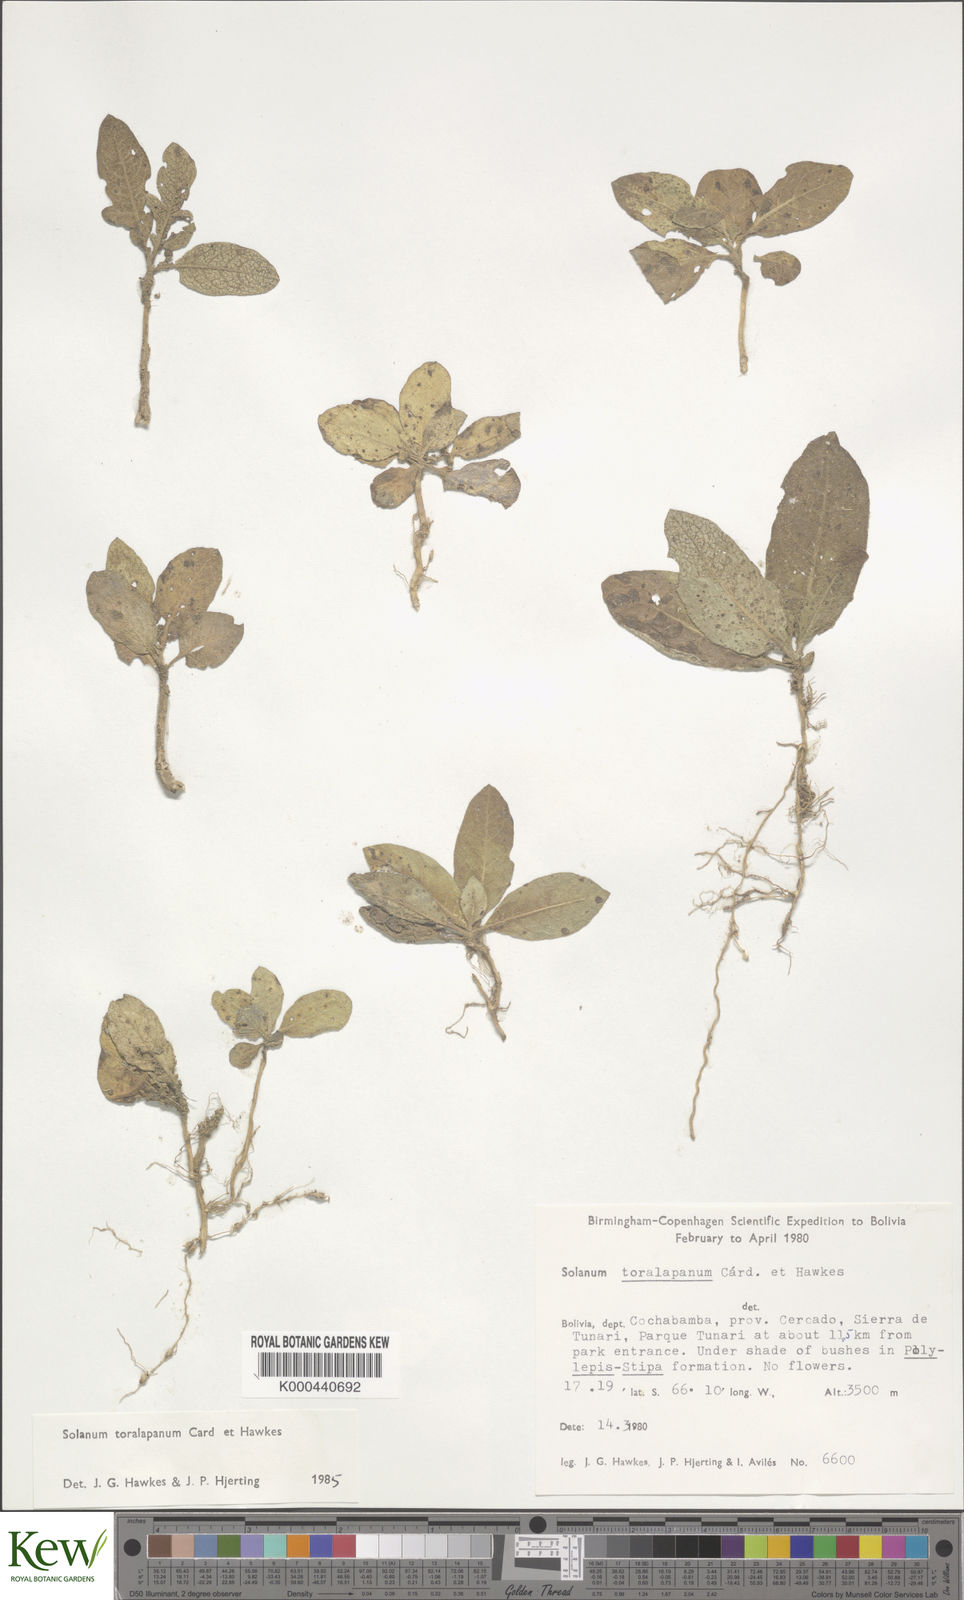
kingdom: Plantae
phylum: Tracheophyta
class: Magnoliopsida
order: Solanales
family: Solanaceae
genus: Solanum
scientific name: Solanum boliviense
